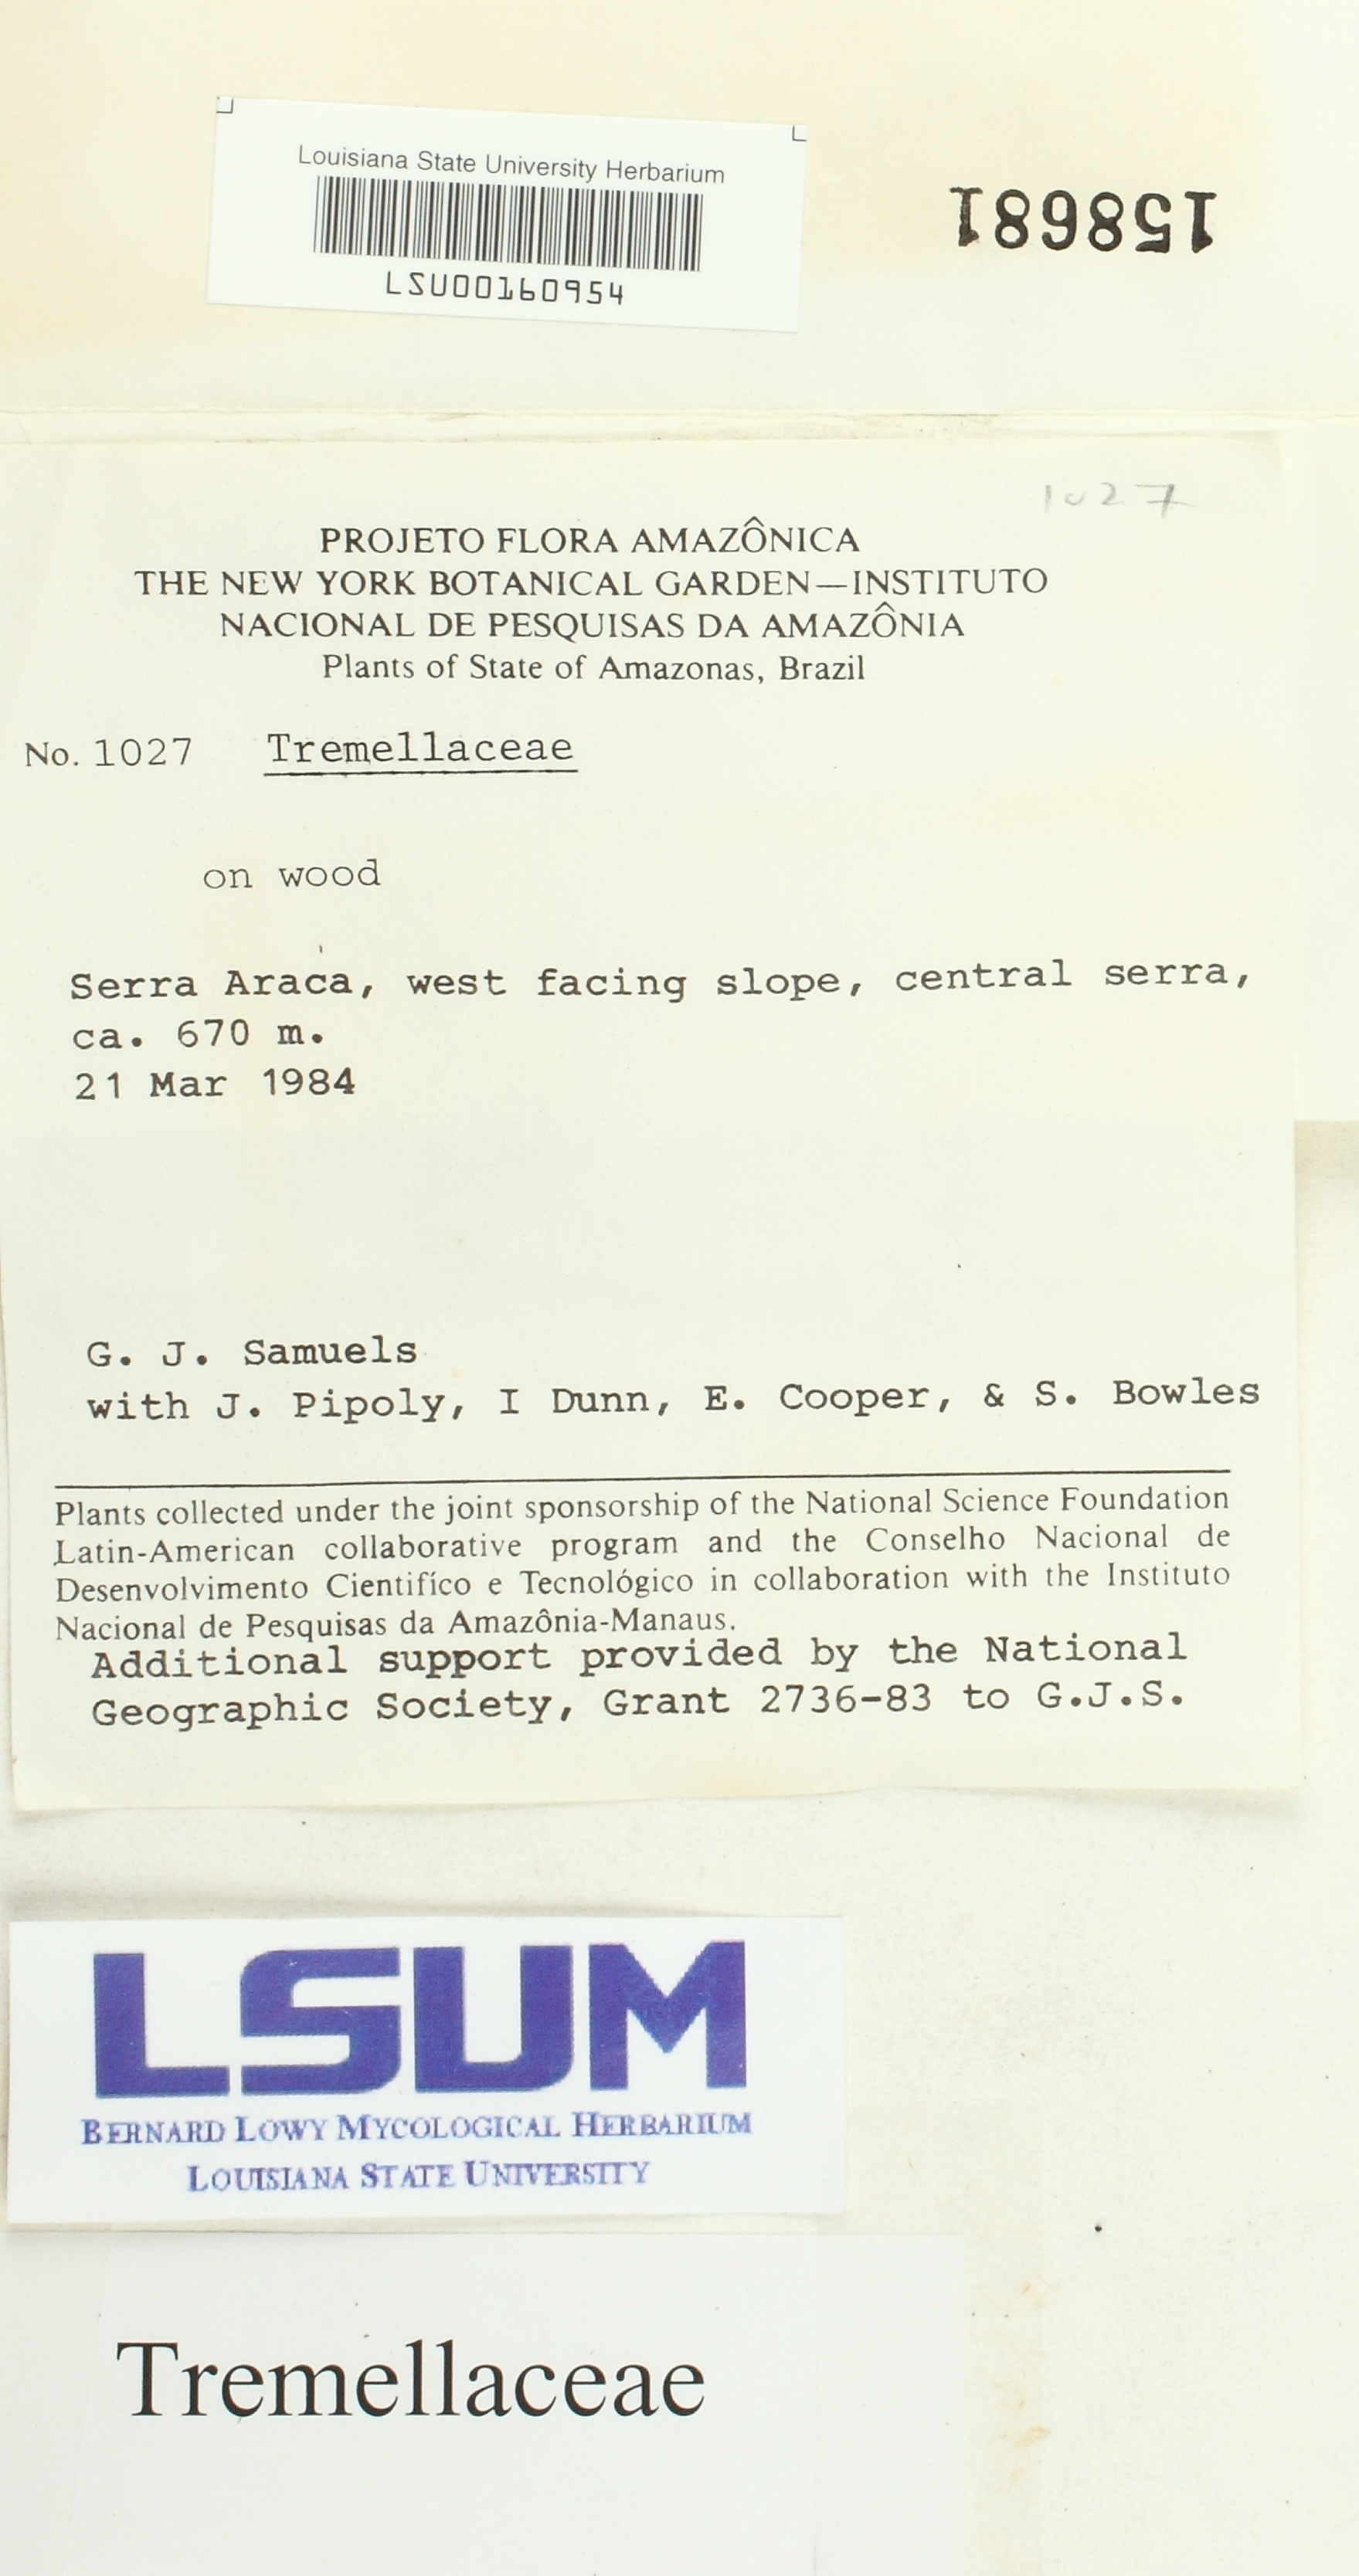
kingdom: Fungi
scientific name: Fungi
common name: Fungi
